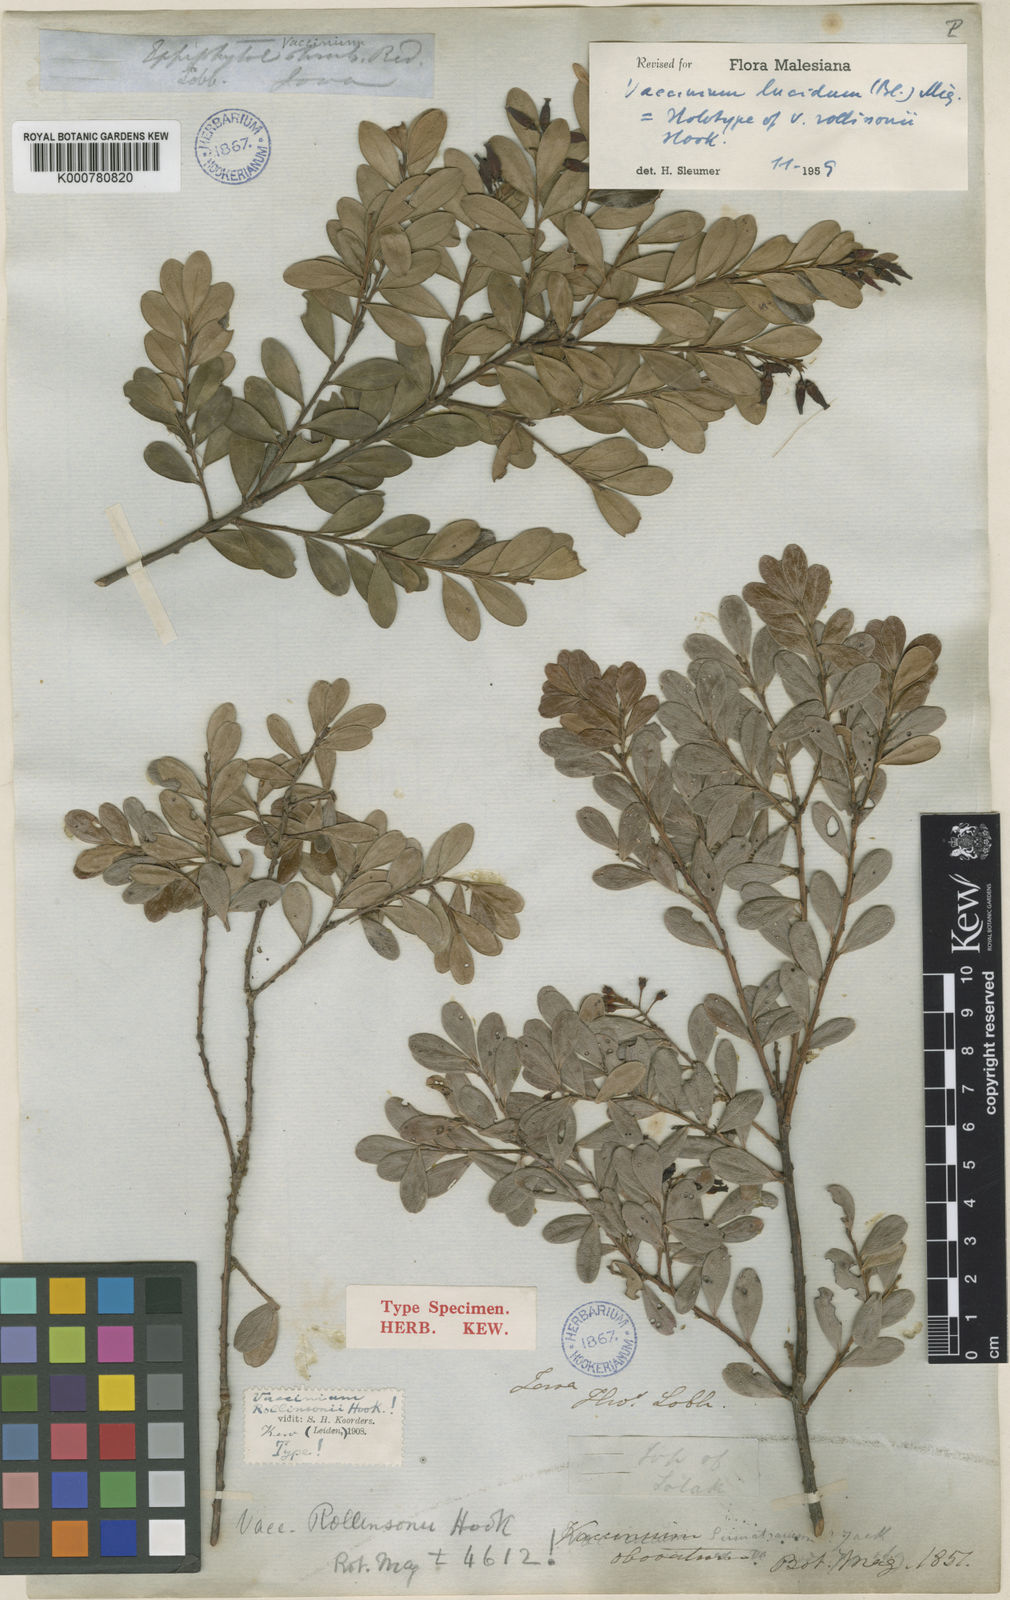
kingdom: Plantae
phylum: Tracheophyta
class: Magnoliopsida
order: Ericales
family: Ericaceae
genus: Vaccinium
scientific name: Vaccinium lucidum
